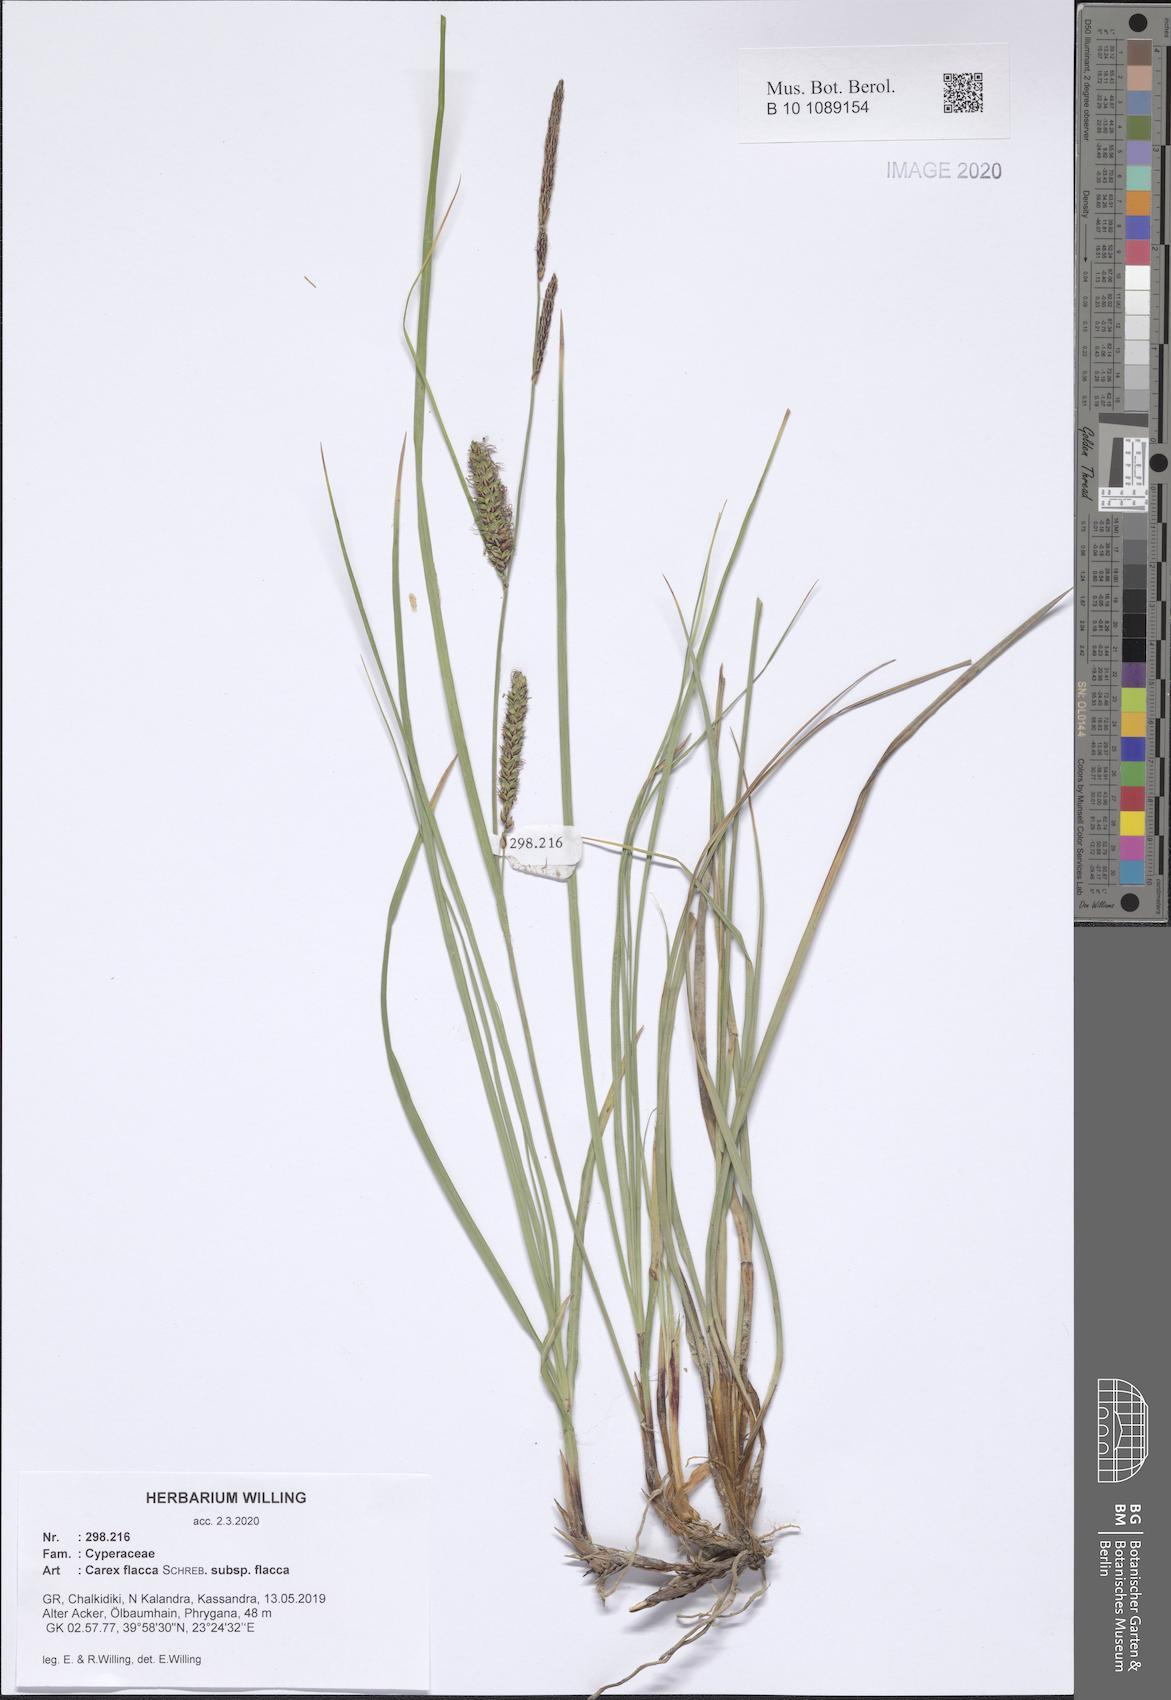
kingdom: Plantae
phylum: Tracheophyta
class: Liliopsida
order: Poales
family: Cyperaceae
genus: Carex
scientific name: Carex flacca
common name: Glaucous sedge
